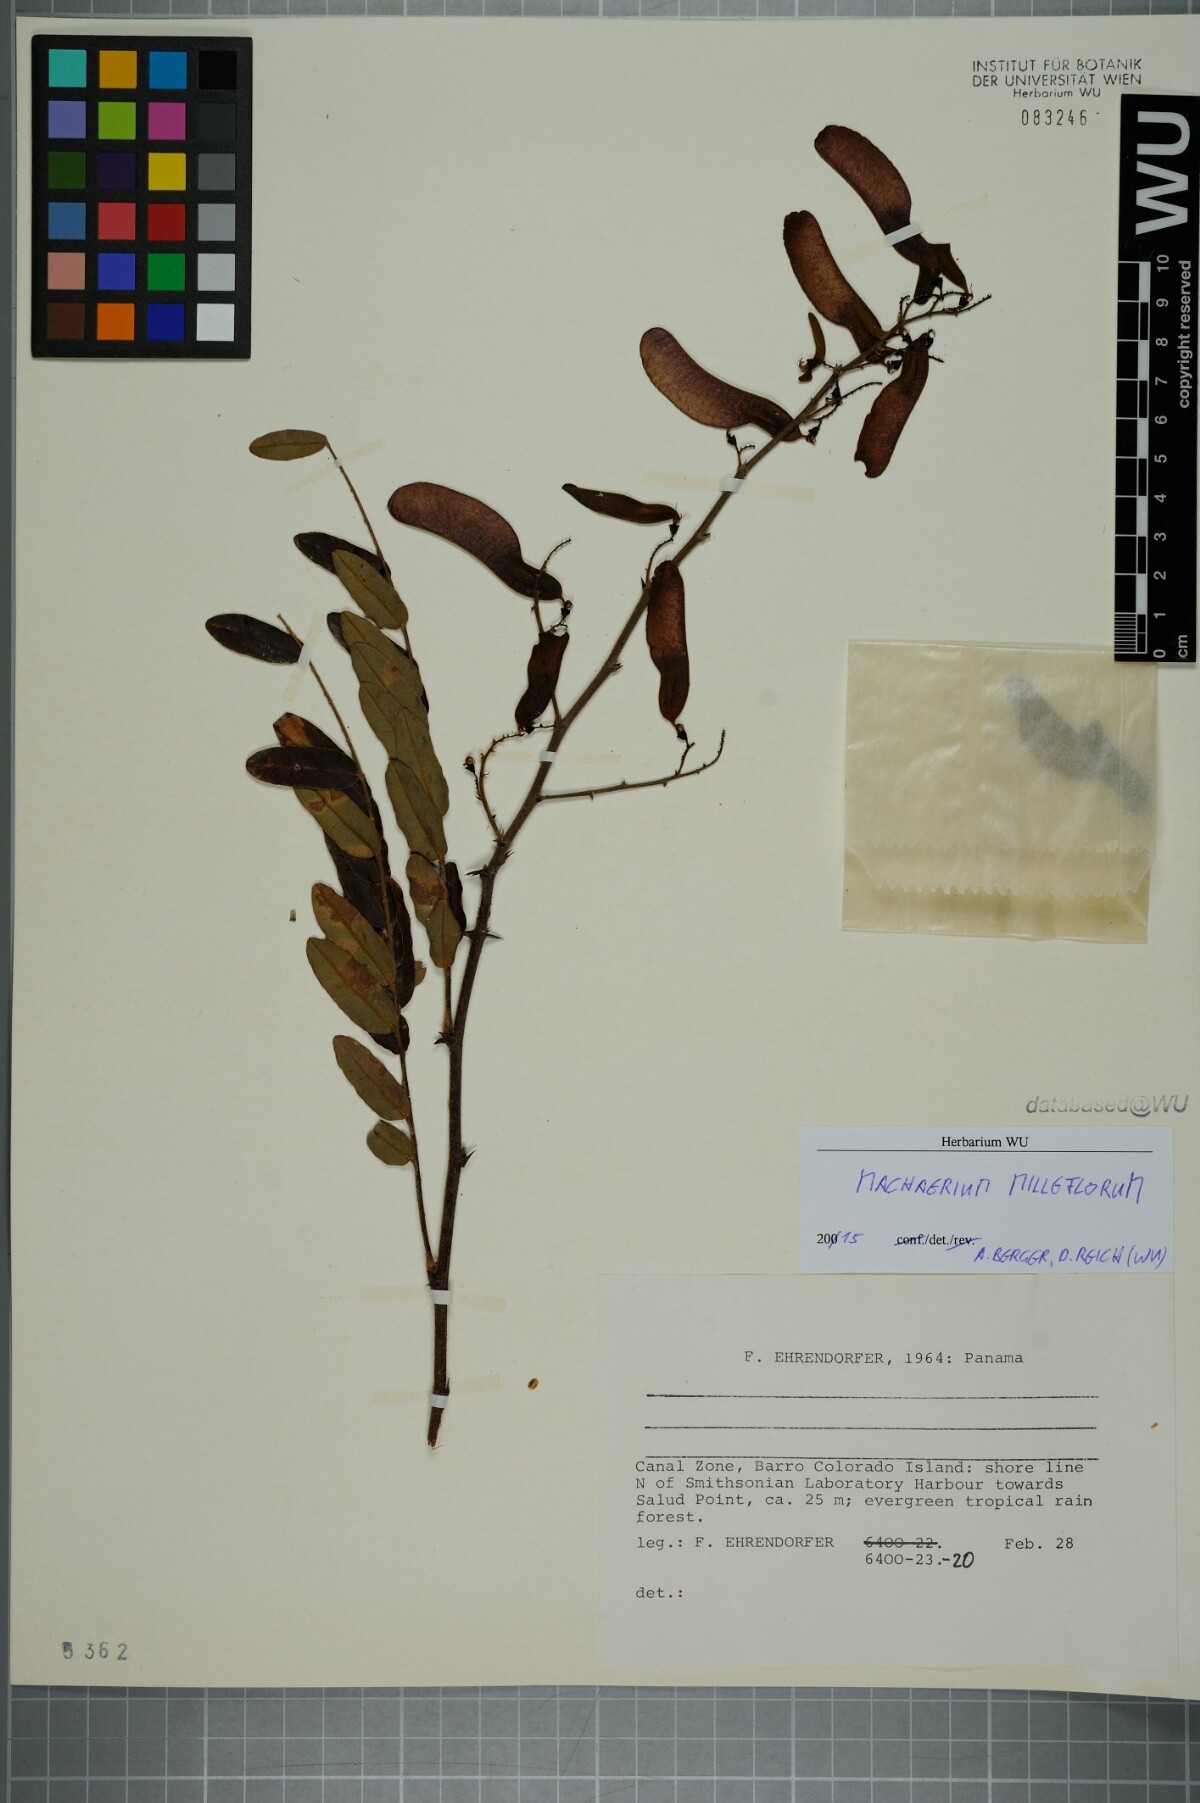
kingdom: Plantae
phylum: Tracheophyta
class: Magnoliopsida
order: Fabales
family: Fabaceae
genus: Machaerium
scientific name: Machaerium milleflorum
